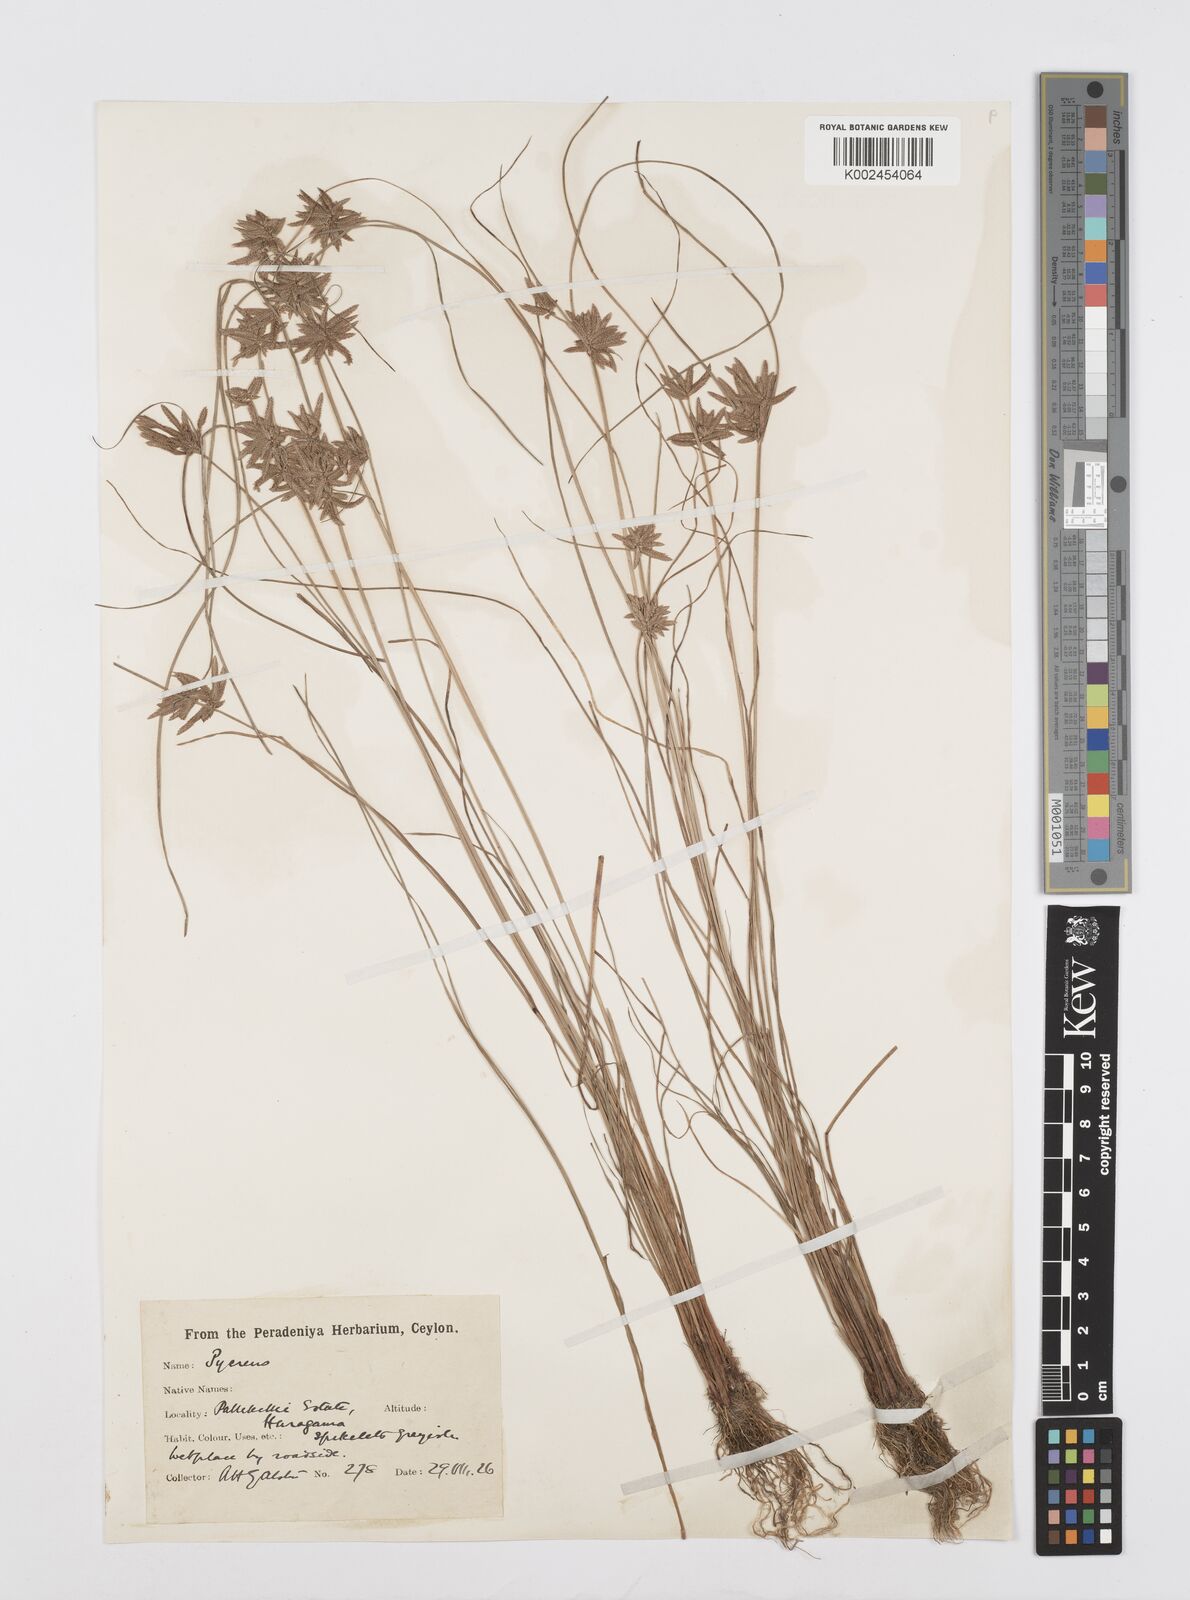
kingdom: Plantae
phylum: Tracheophyta
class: Liliopsida
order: Poales
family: Cyperaceae
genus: Cyperus
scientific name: Cyperus flavidus
